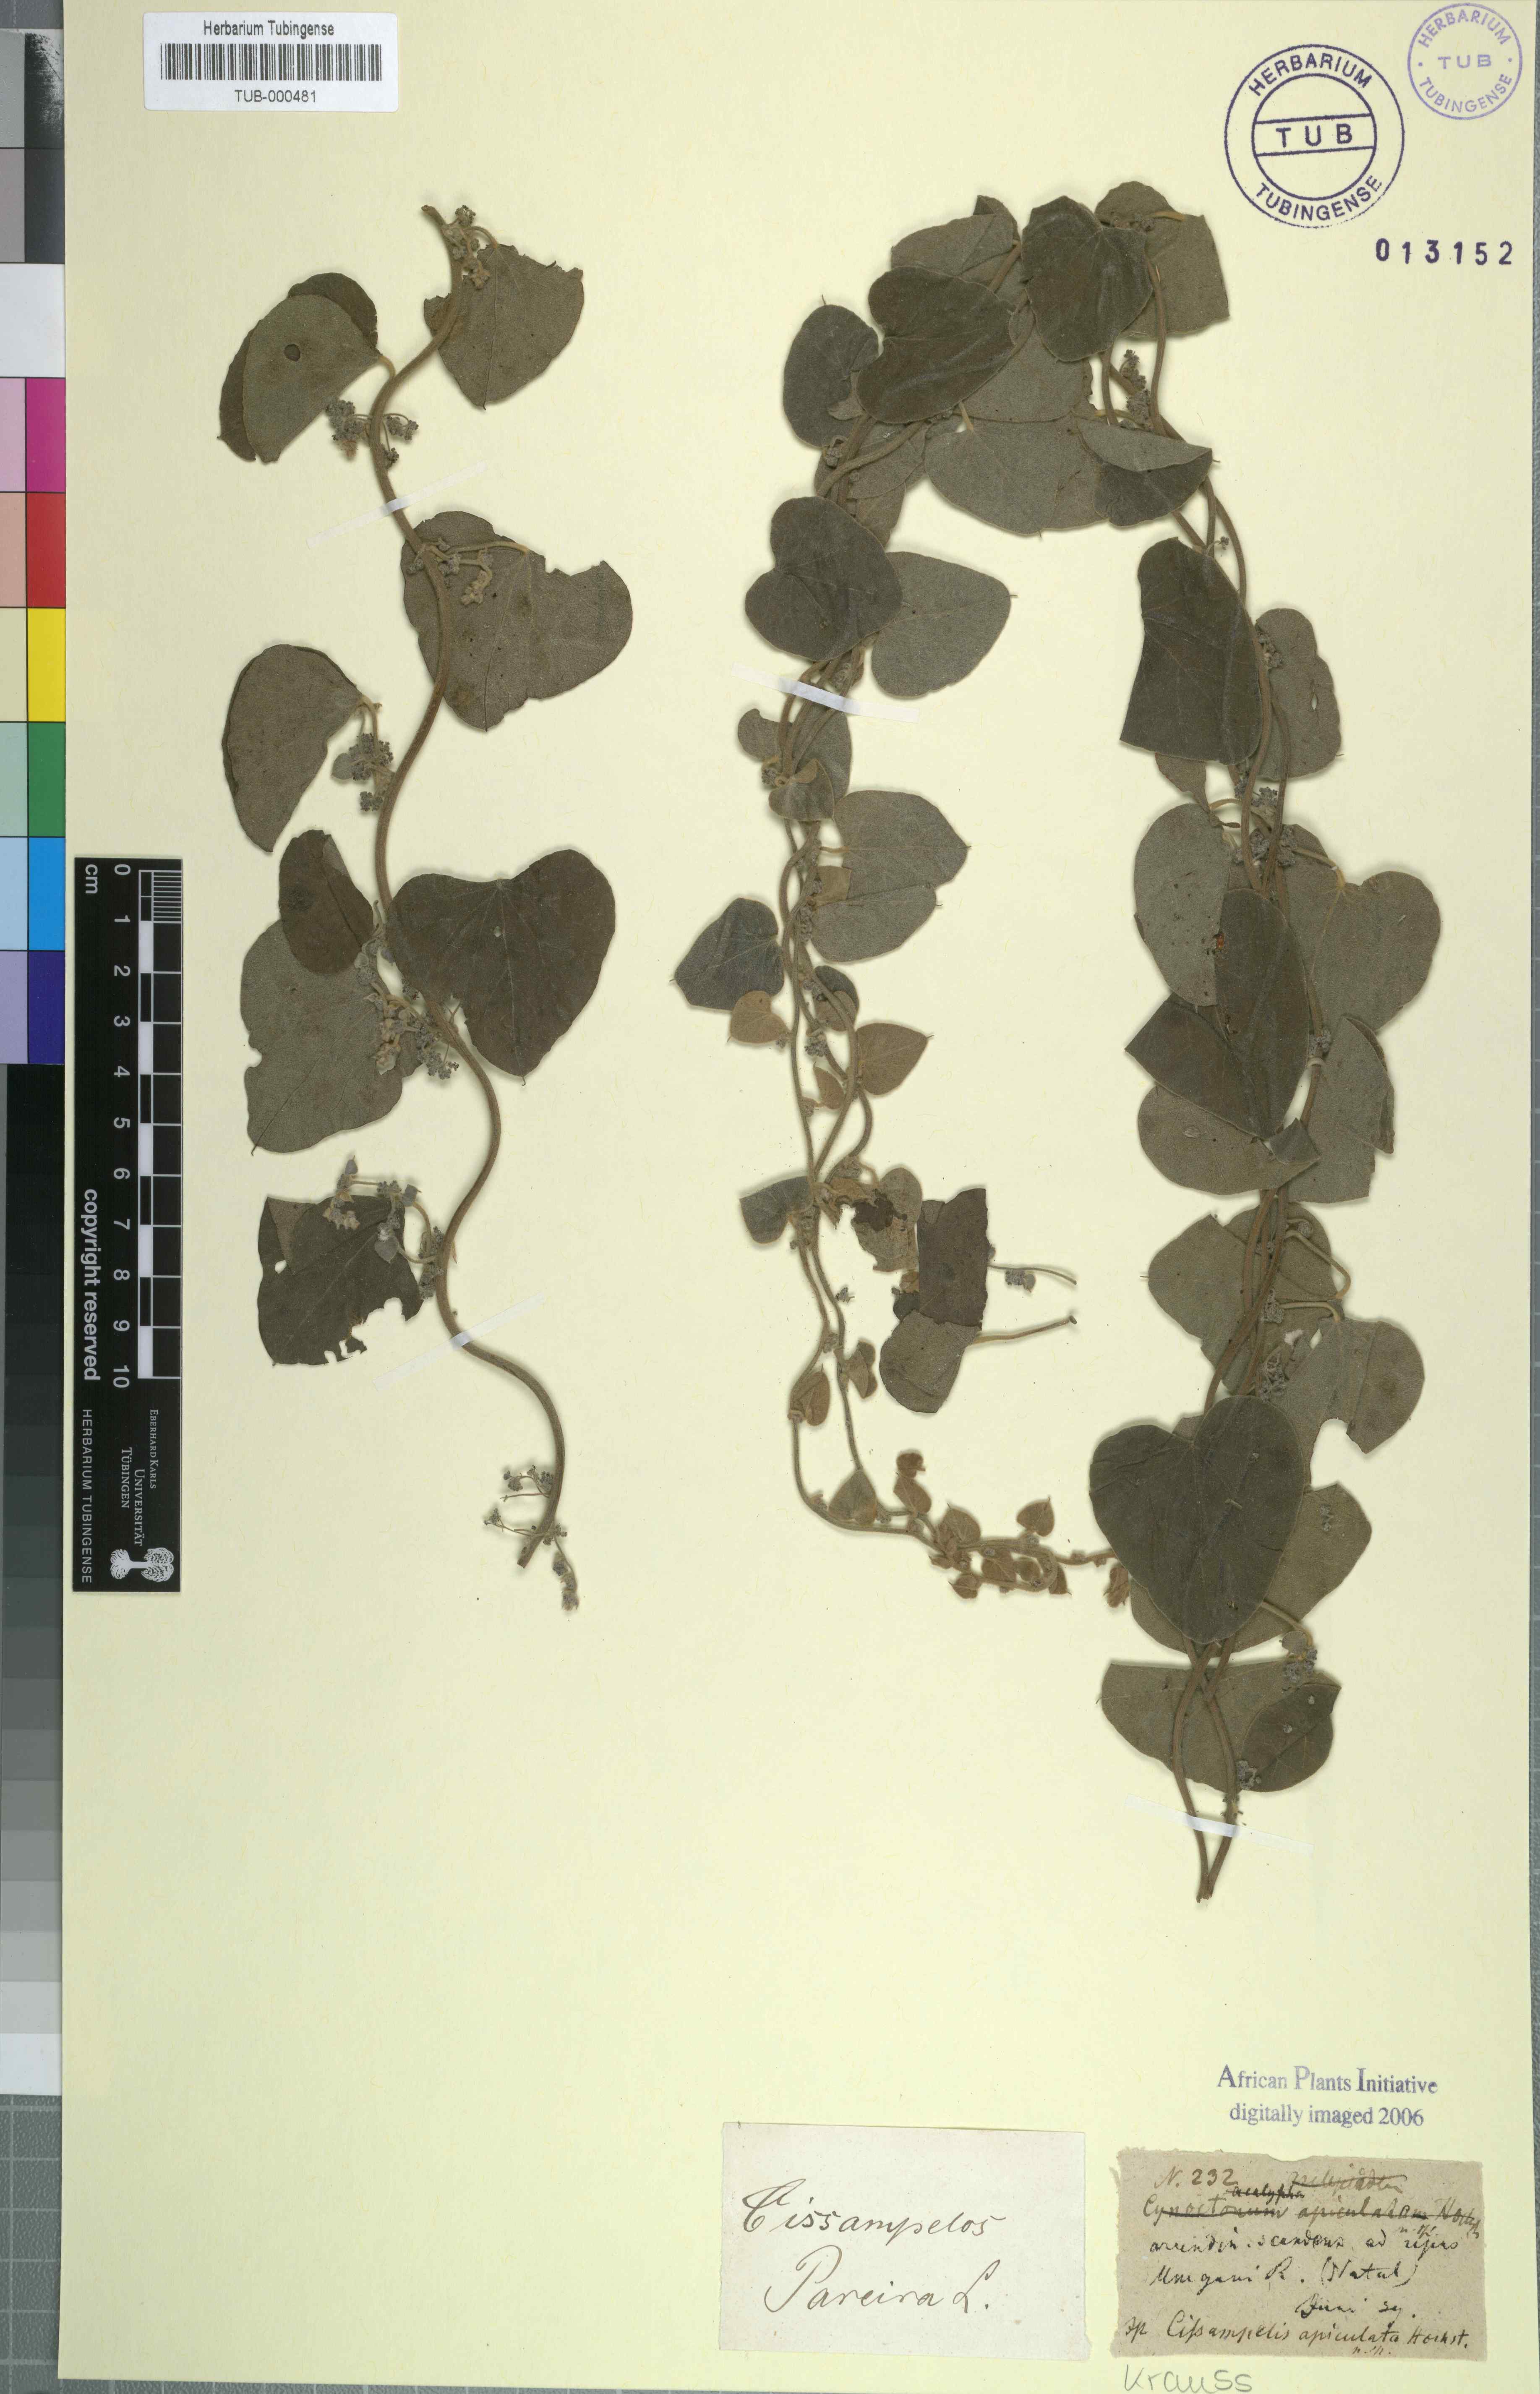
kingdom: Plantae
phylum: Tracheophyta
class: Magnoliopsida
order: Ranunculales
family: Menispermaceae
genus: Cissampelos
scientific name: Cissampelos pareira
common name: Velvetleaf
